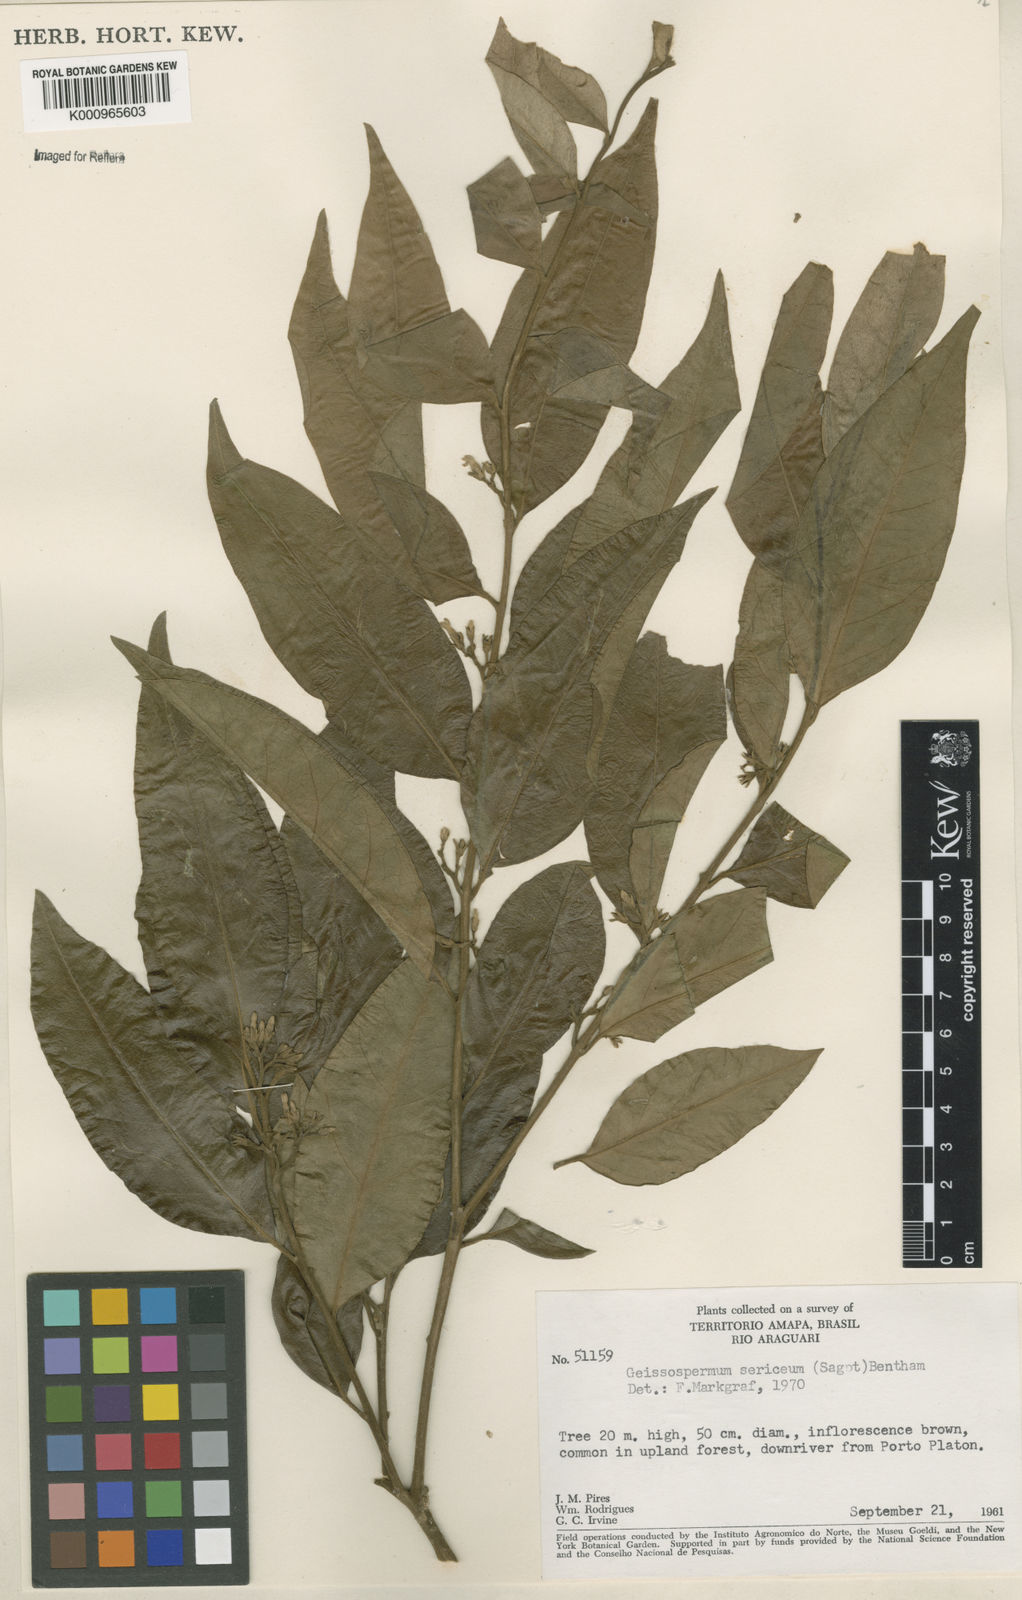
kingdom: Plantae
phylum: Tracheophyta
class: Magnoliopsida
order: Gentianales
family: Apocynaceae
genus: Geissospermum
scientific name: Geissospermum
